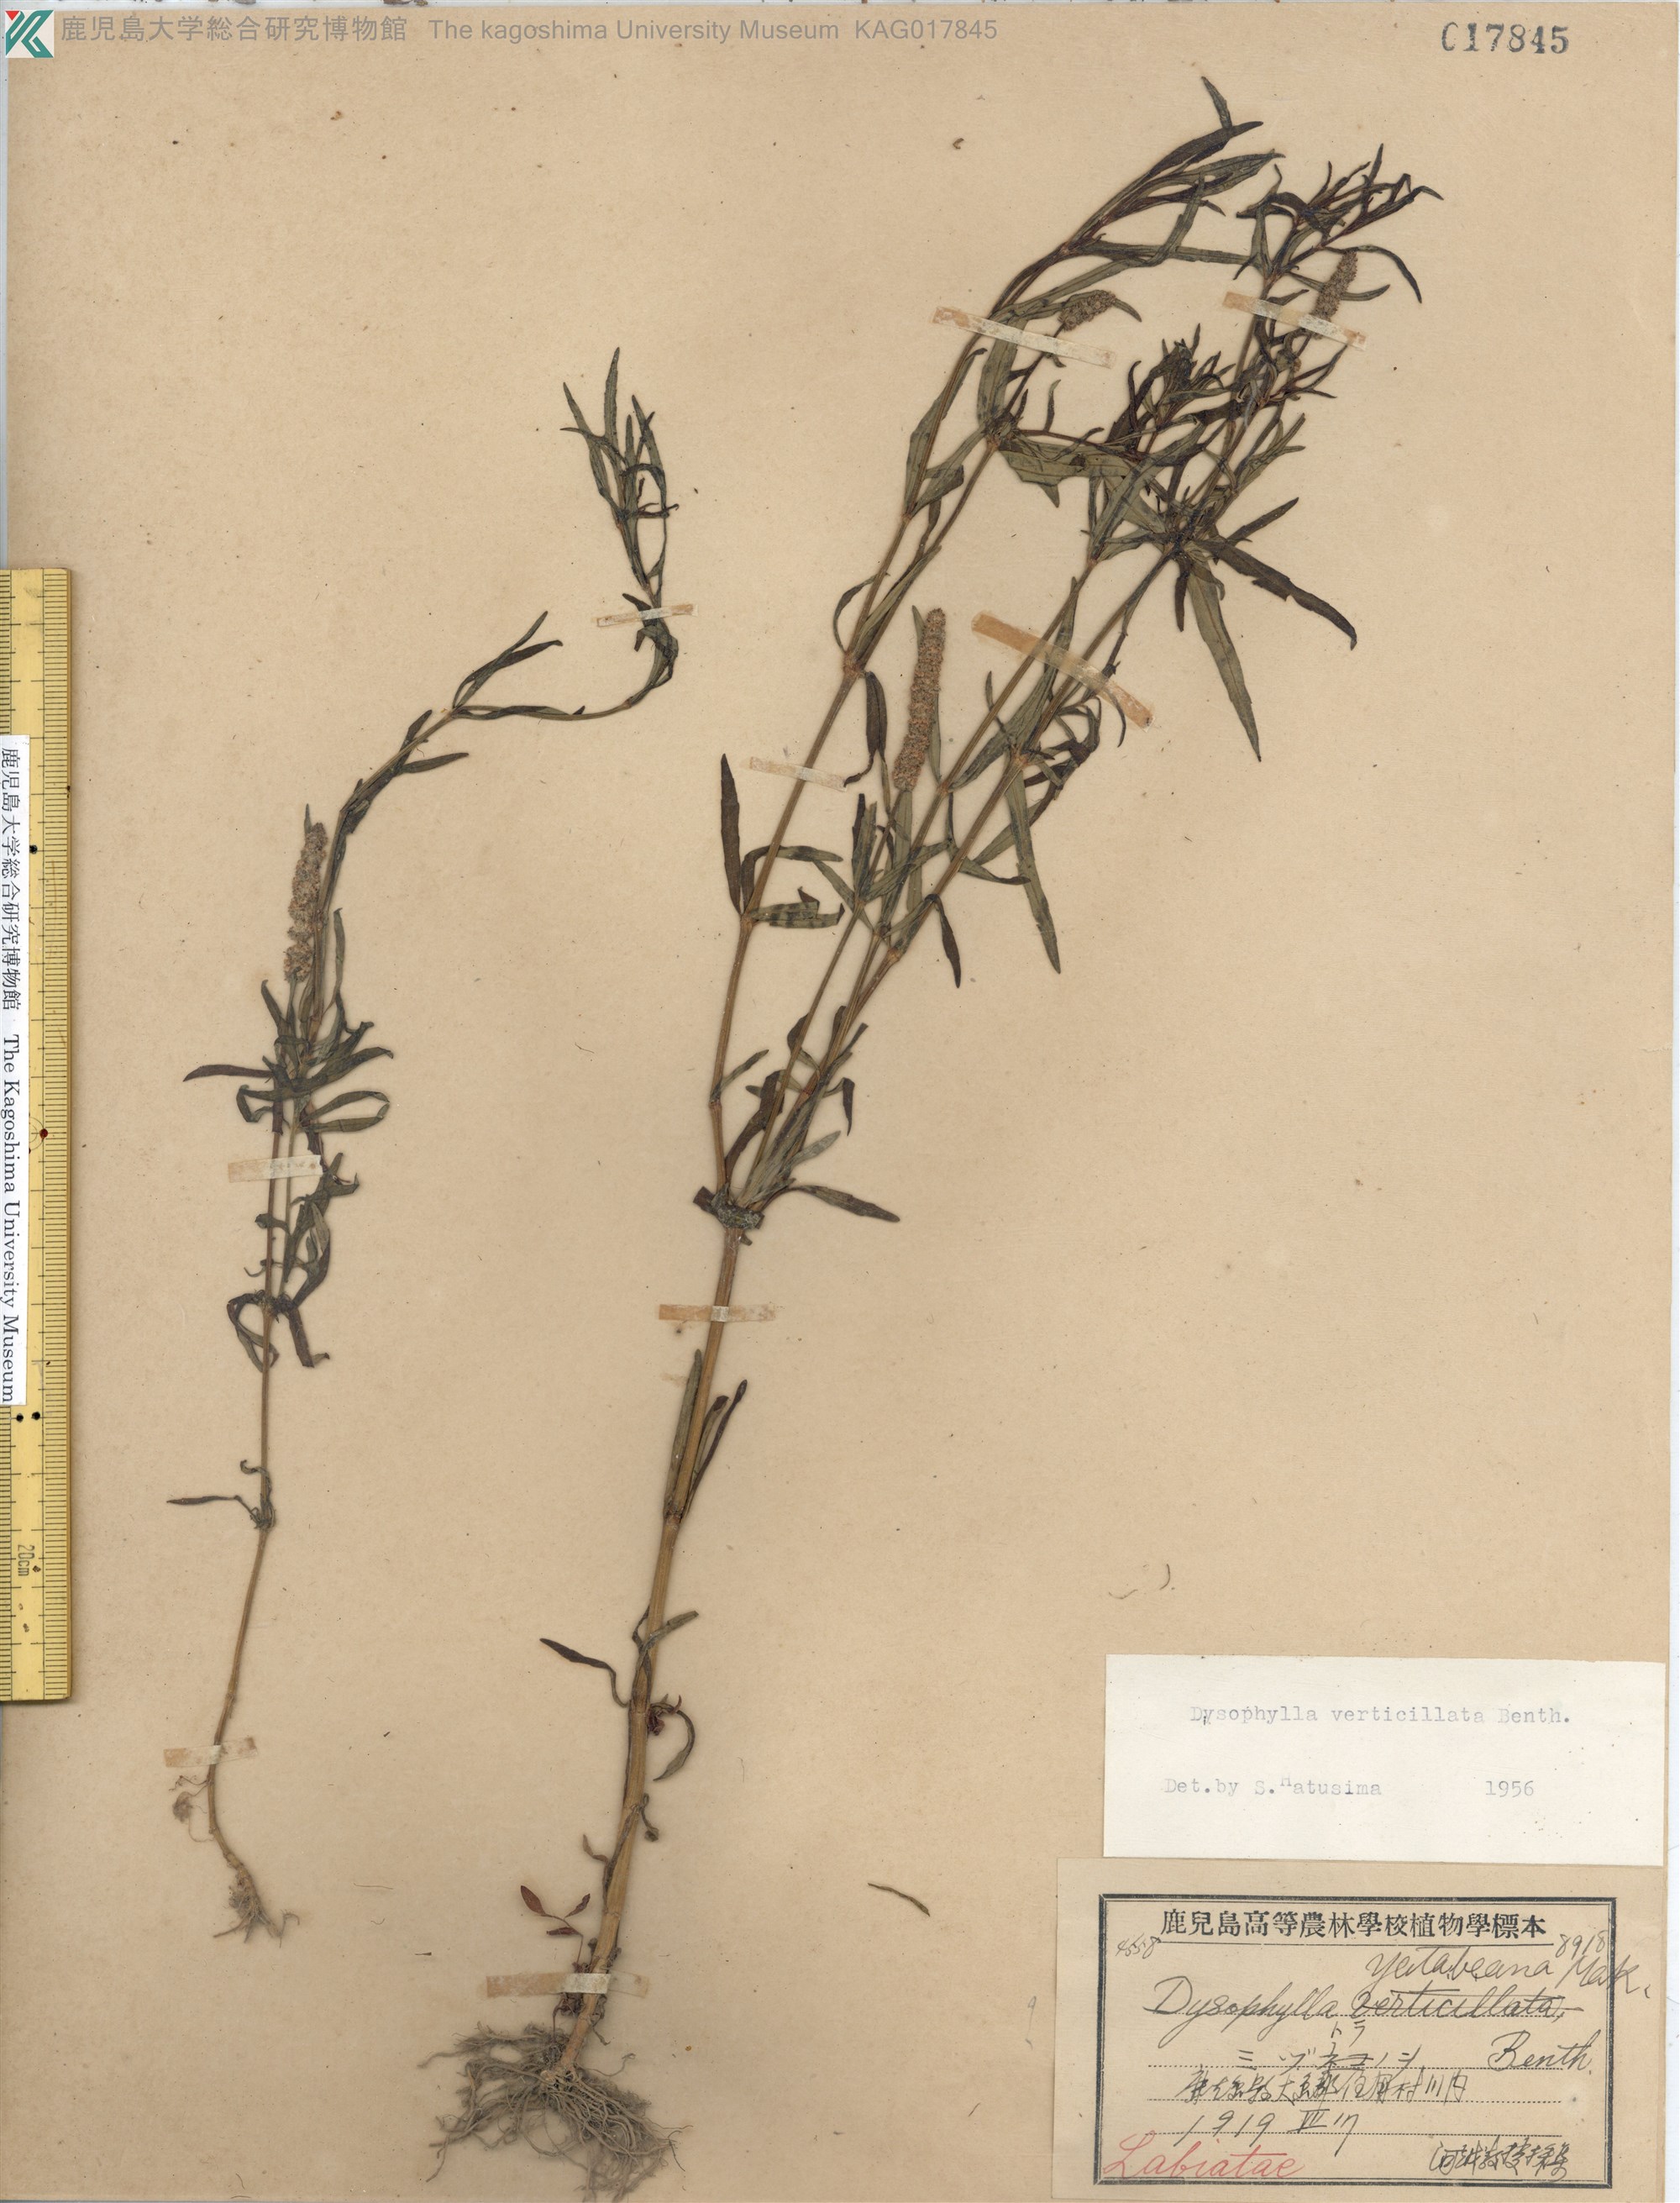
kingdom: Plantae
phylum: Tracheophyta
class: Magnoliopsida
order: Lamiales
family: Lamiaceae
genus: Pogostemon
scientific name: Pogostemon stellatus
